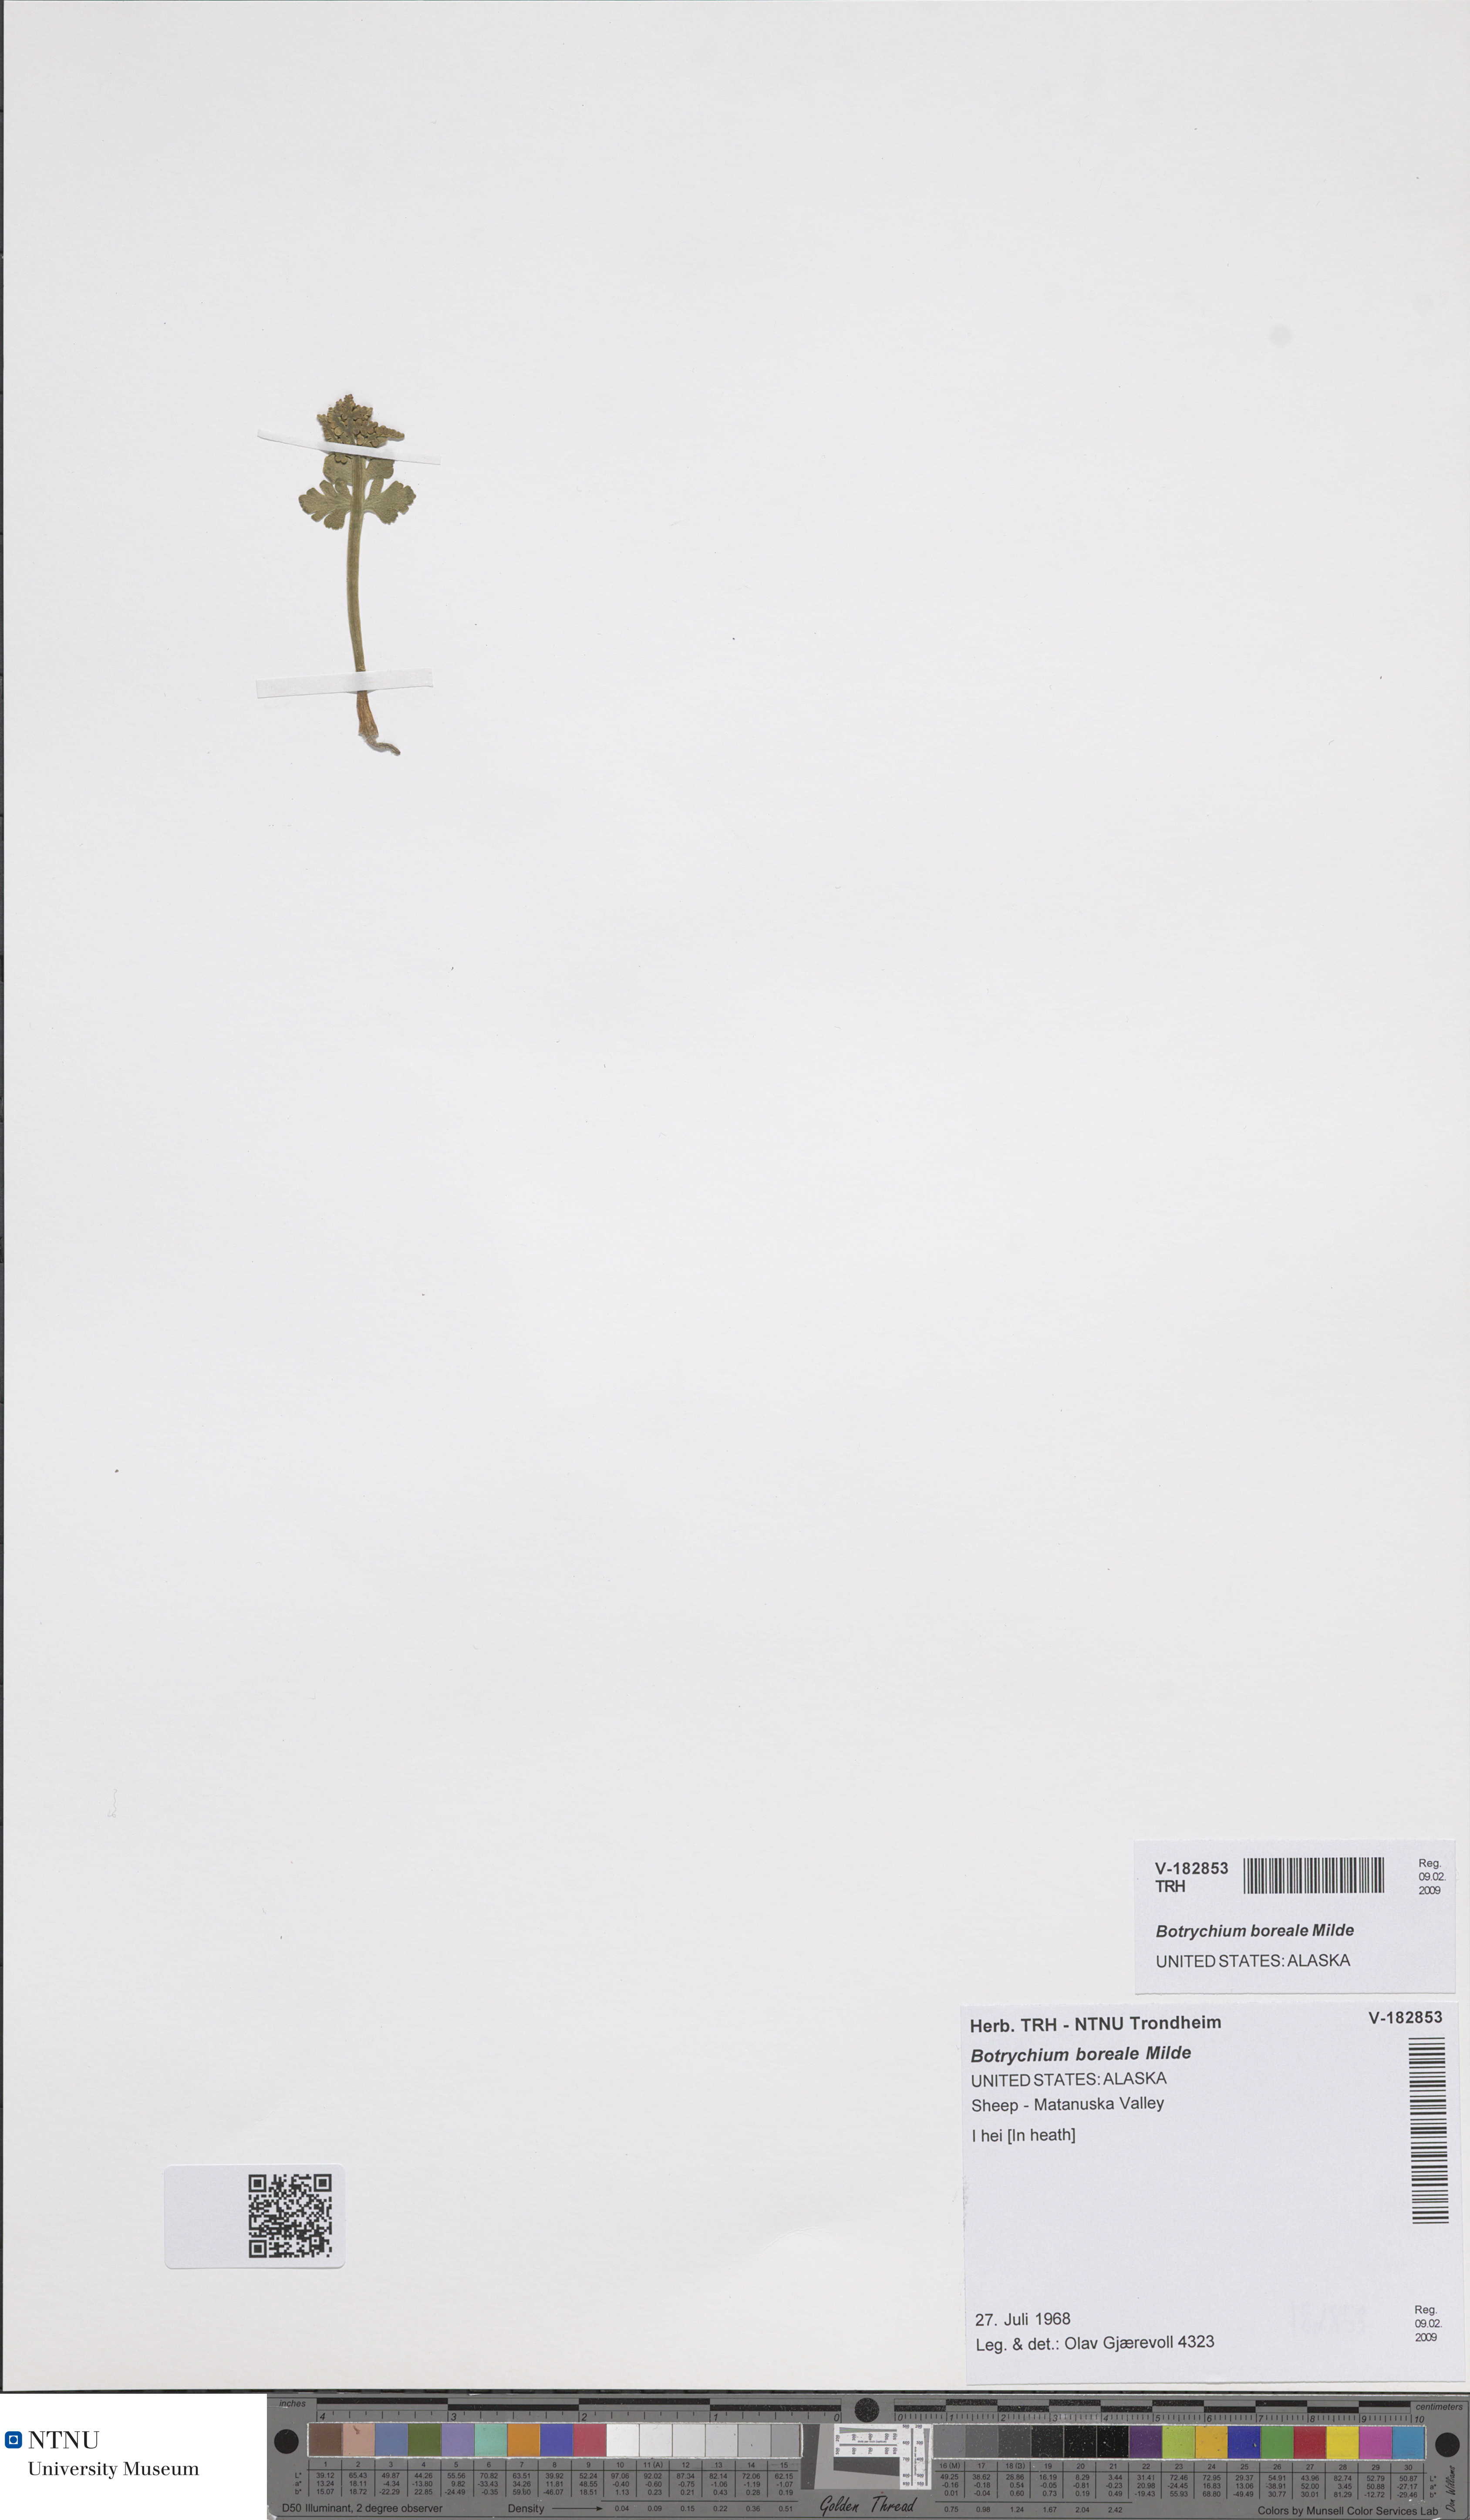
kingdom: Plantae
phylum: Tracheophyta
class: Polypodiopsida
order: Ophioglossales
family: Ophioglossaceae
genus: Botrychium
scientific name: Botrychium boreale
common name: Boreal moonwort
